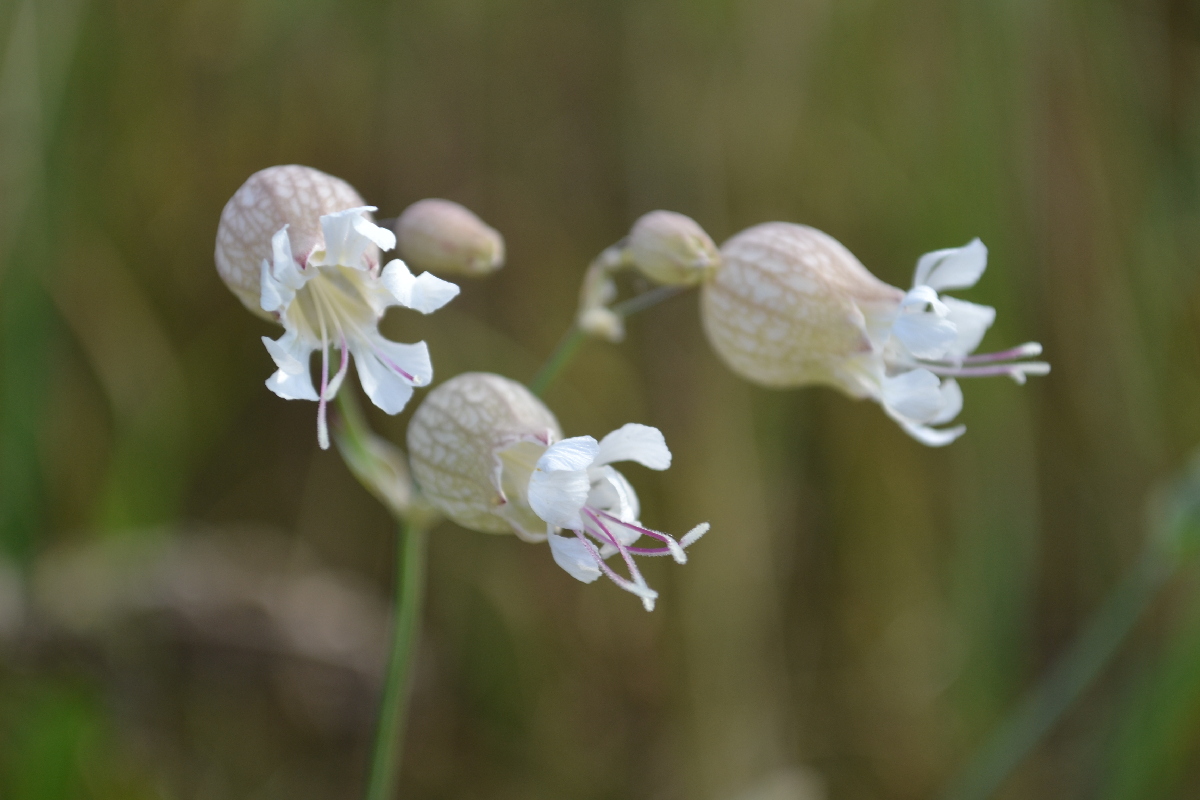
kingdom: Plantae
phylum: Tracheophyta
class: Magnoliopsida
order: Caryophyllales
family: Caryophyllaceae
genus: Silene
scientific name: Silene behen
